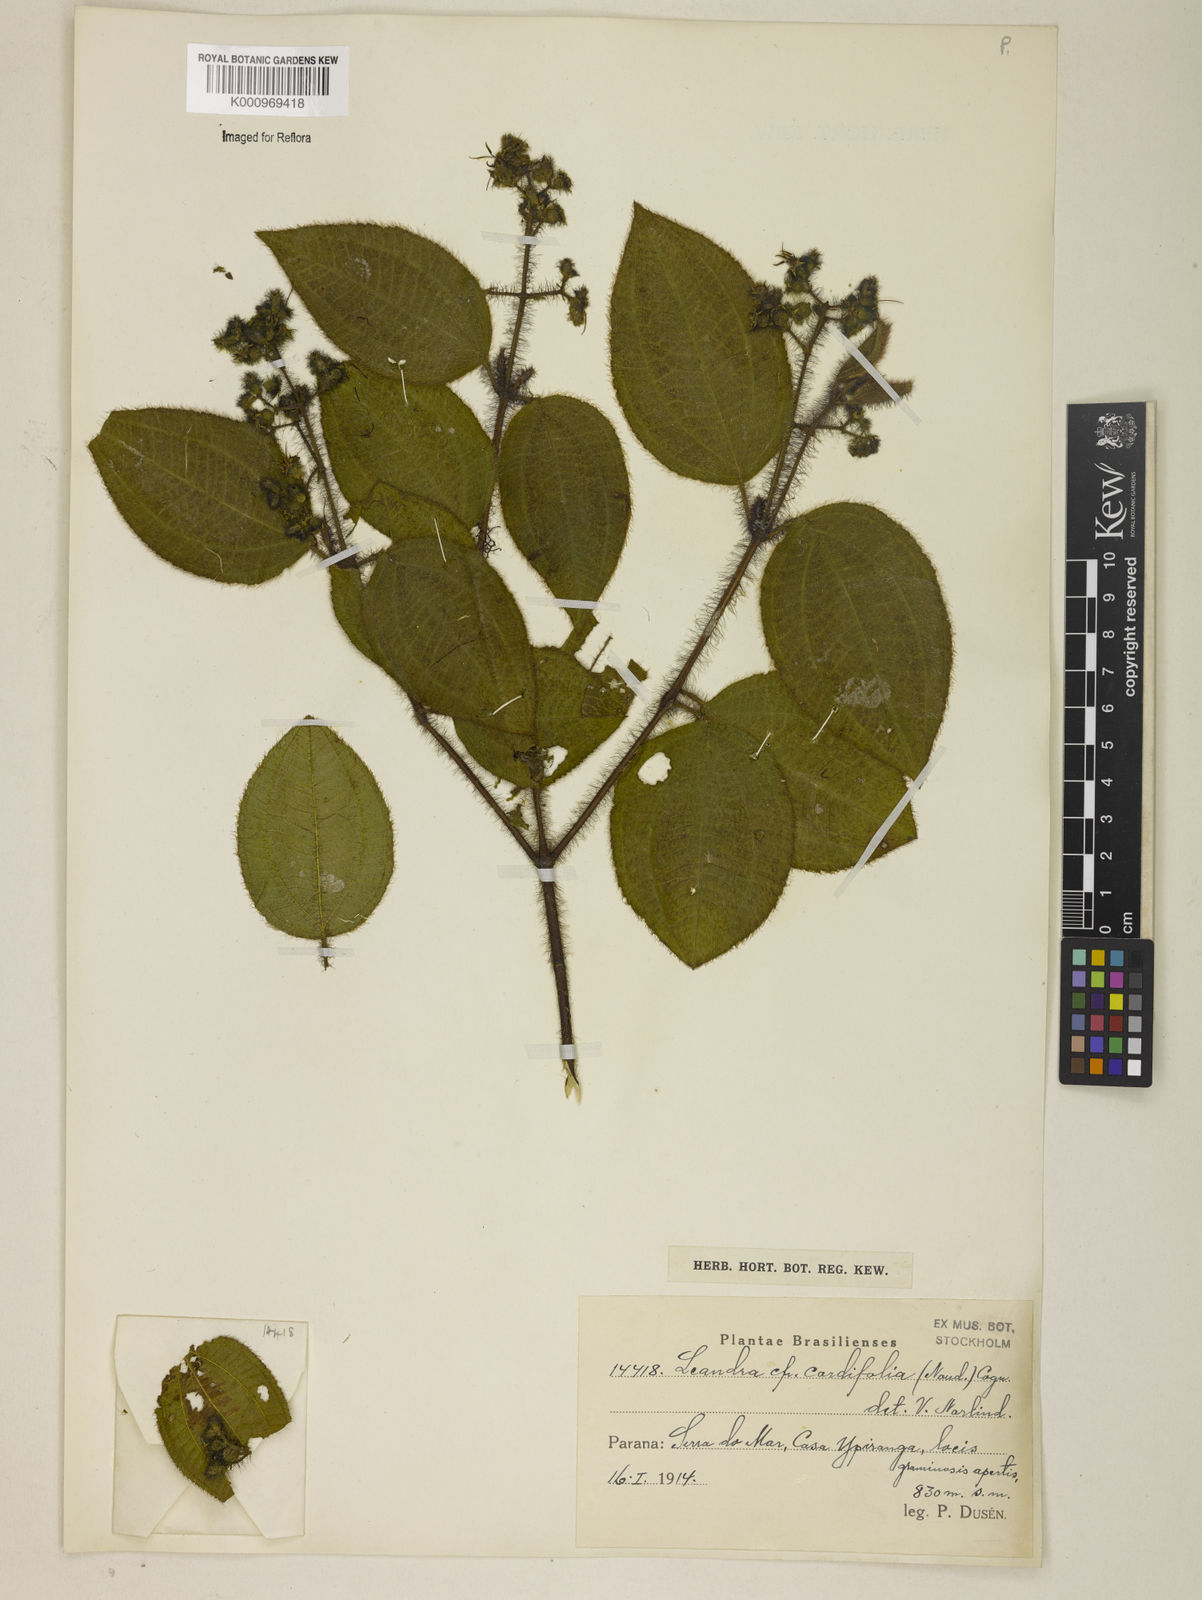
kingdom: Plantae
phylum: Tracheophyta
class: Magnoliopsida
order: Myrtales
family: Melastomataceae
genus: Miconia
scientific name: Miconia leacordifolia
